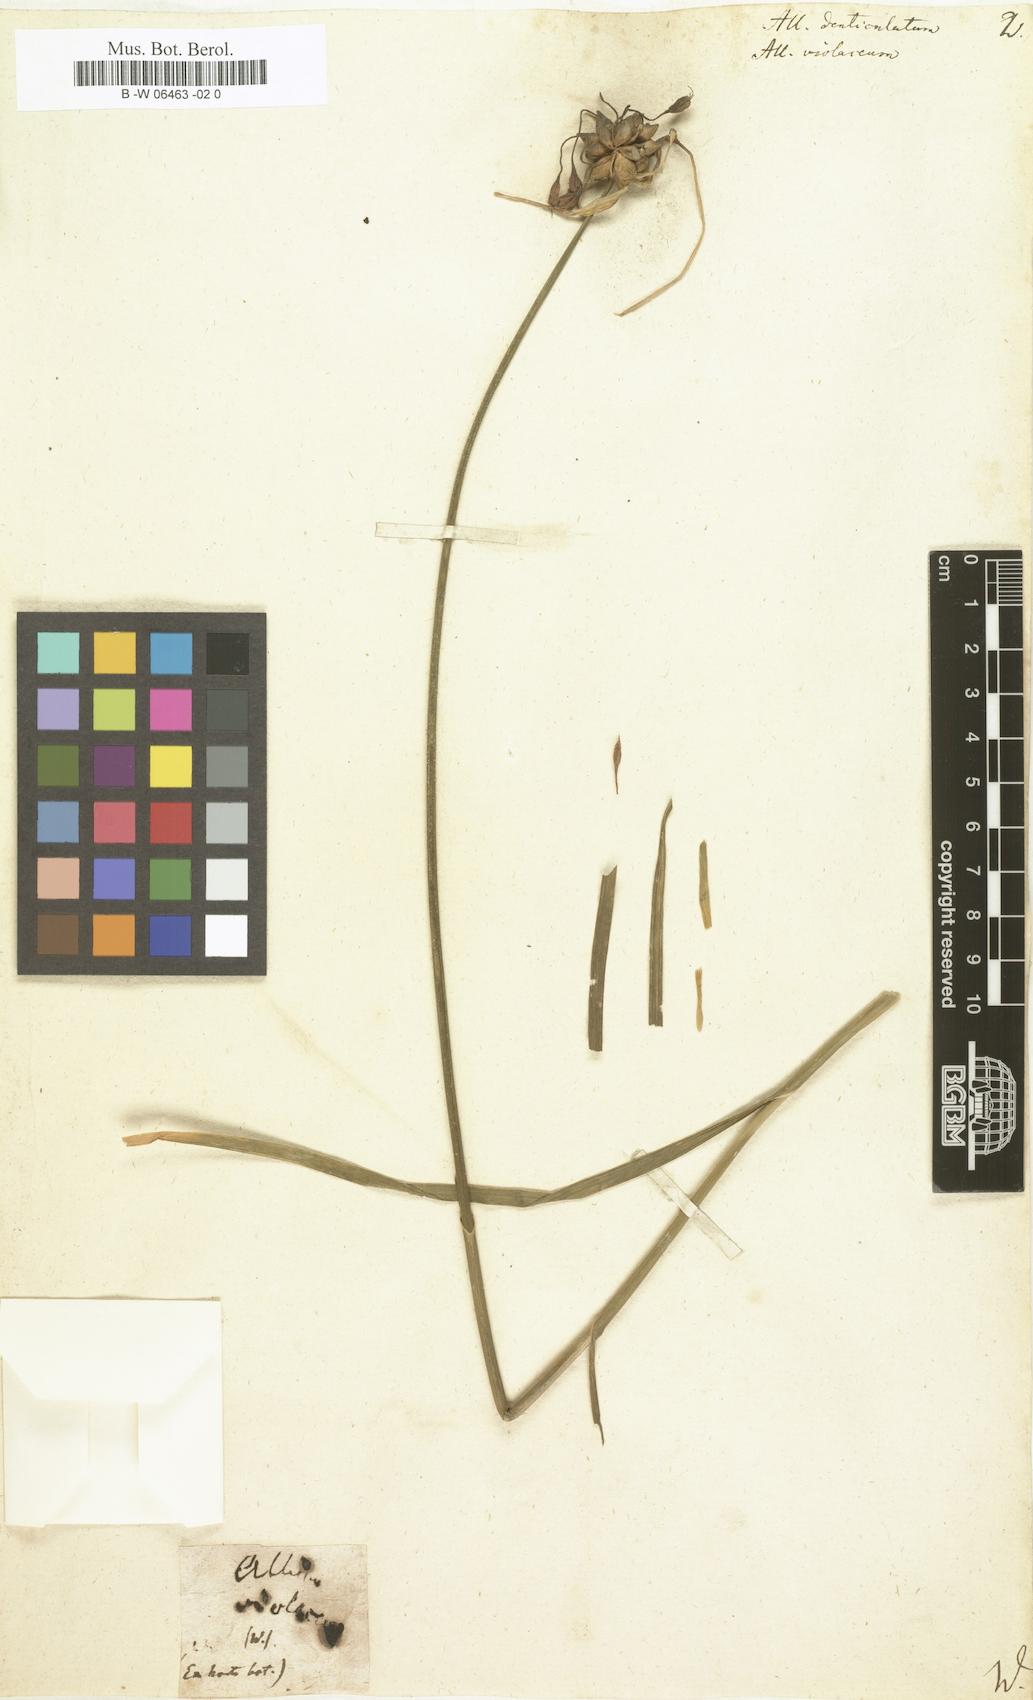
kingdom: Plantae
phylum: Tracheophyta
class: Liliopsida
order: Asparagales
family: Amaryllidaceae
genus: Allium
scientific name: Allium
